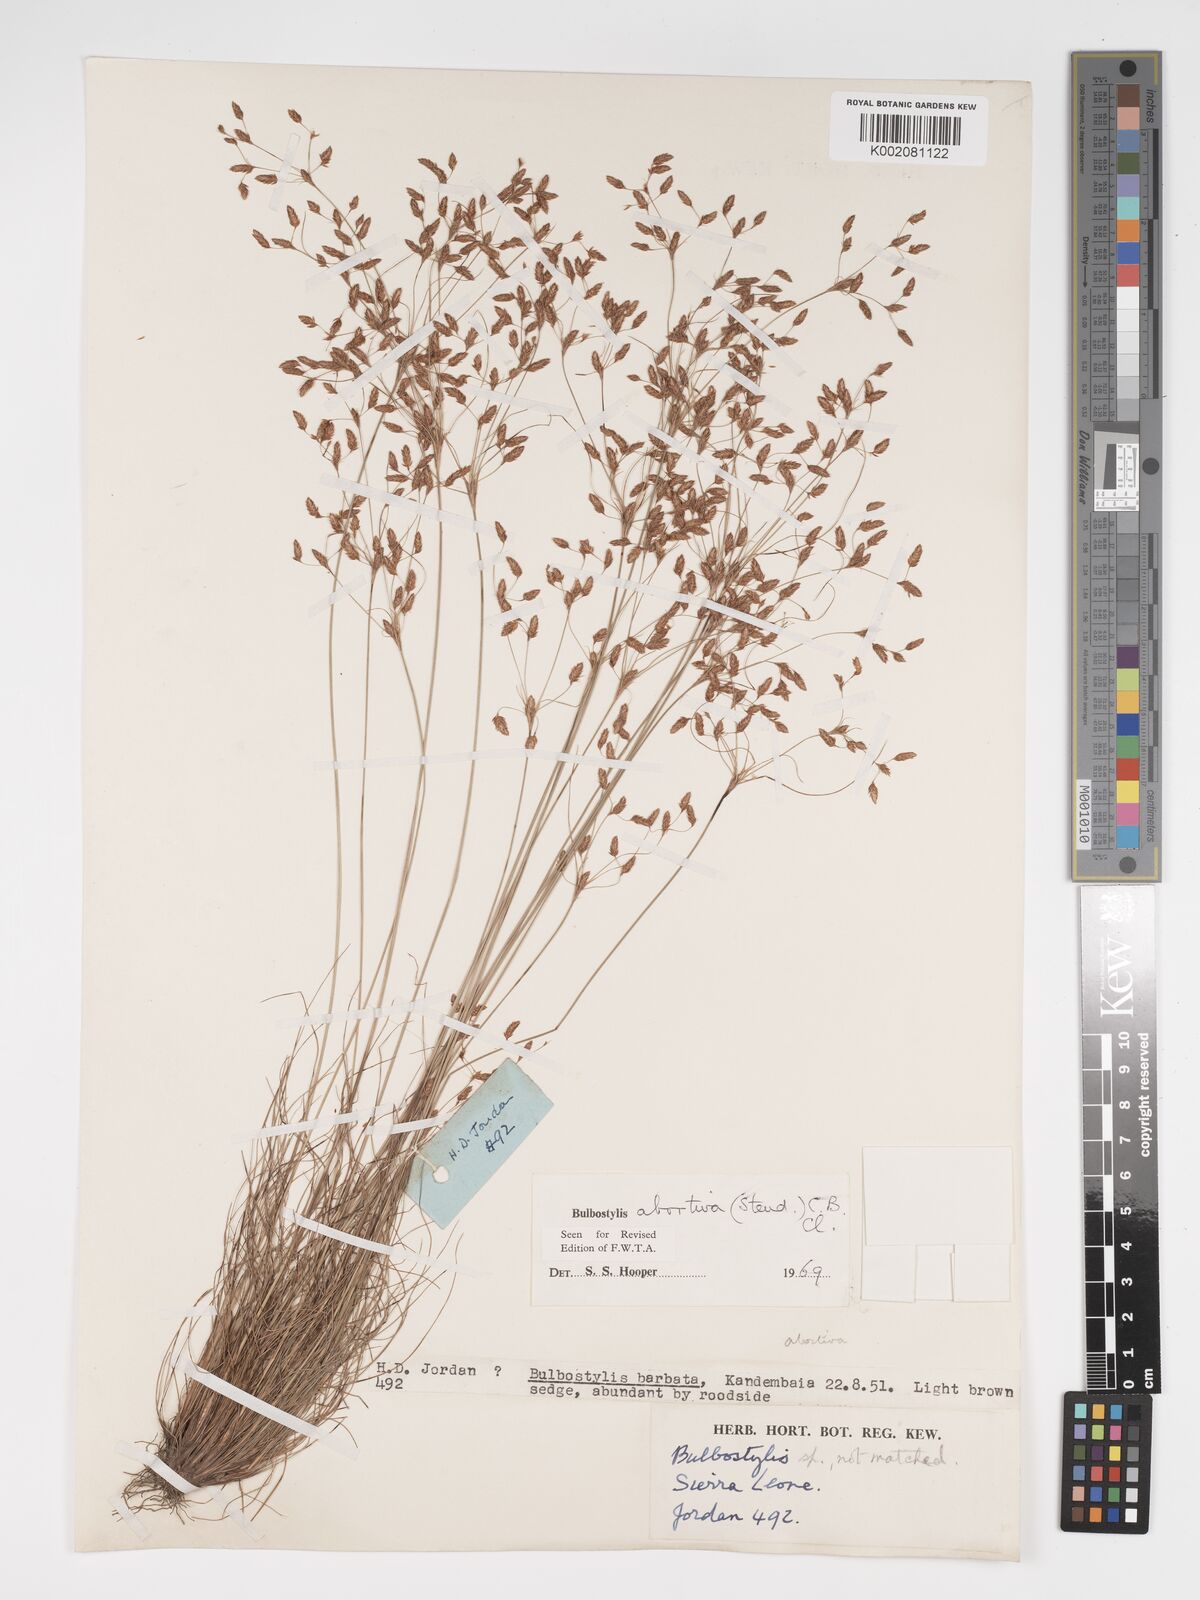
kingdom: Plantae
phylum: Tracheophyta
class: Liliopsida
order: Poales
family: Cyperaceae
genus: Bulbostylis
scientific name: Bulbostylis abortiva
